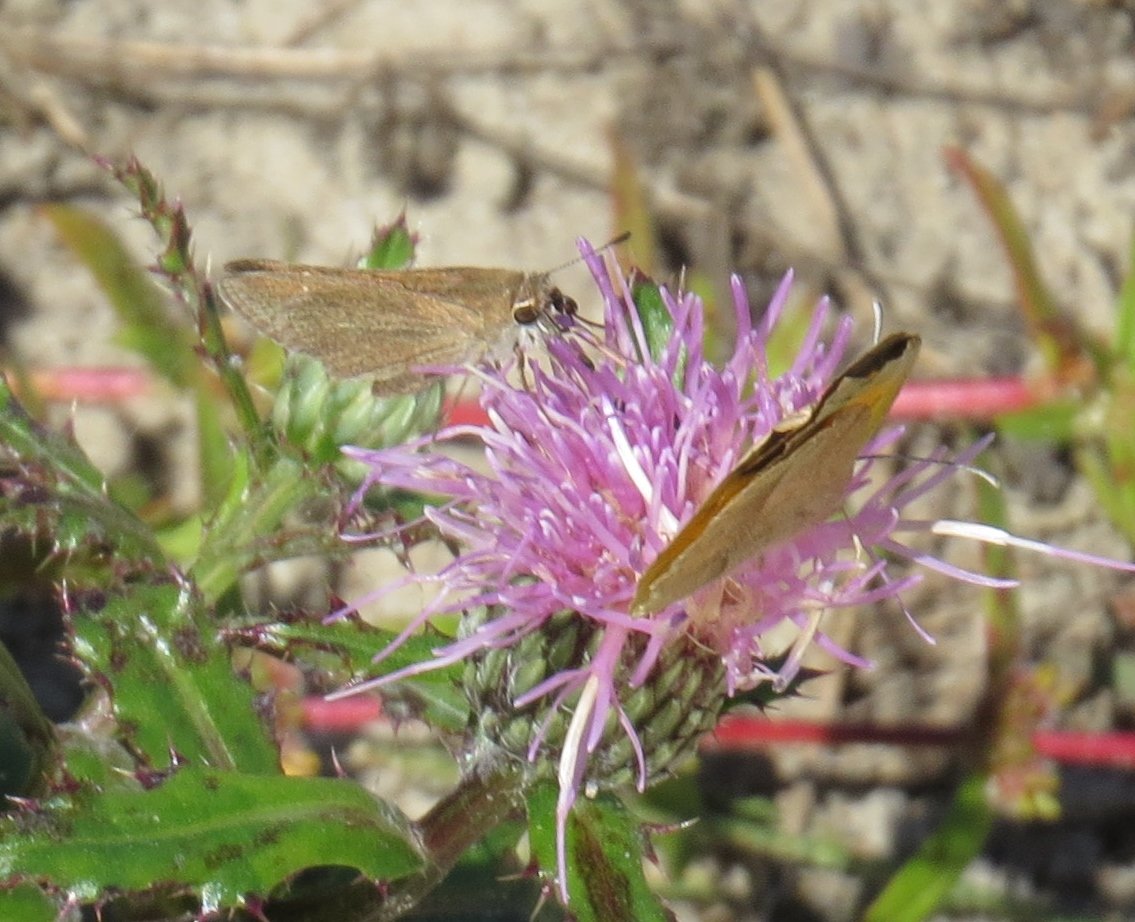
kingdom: Animalia
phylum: Arthropoda
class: Insecta
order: Lepidoptera
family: Hesperiidae
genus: Lerodea
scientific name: Lerodea eufala
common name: Eufala Skipper
